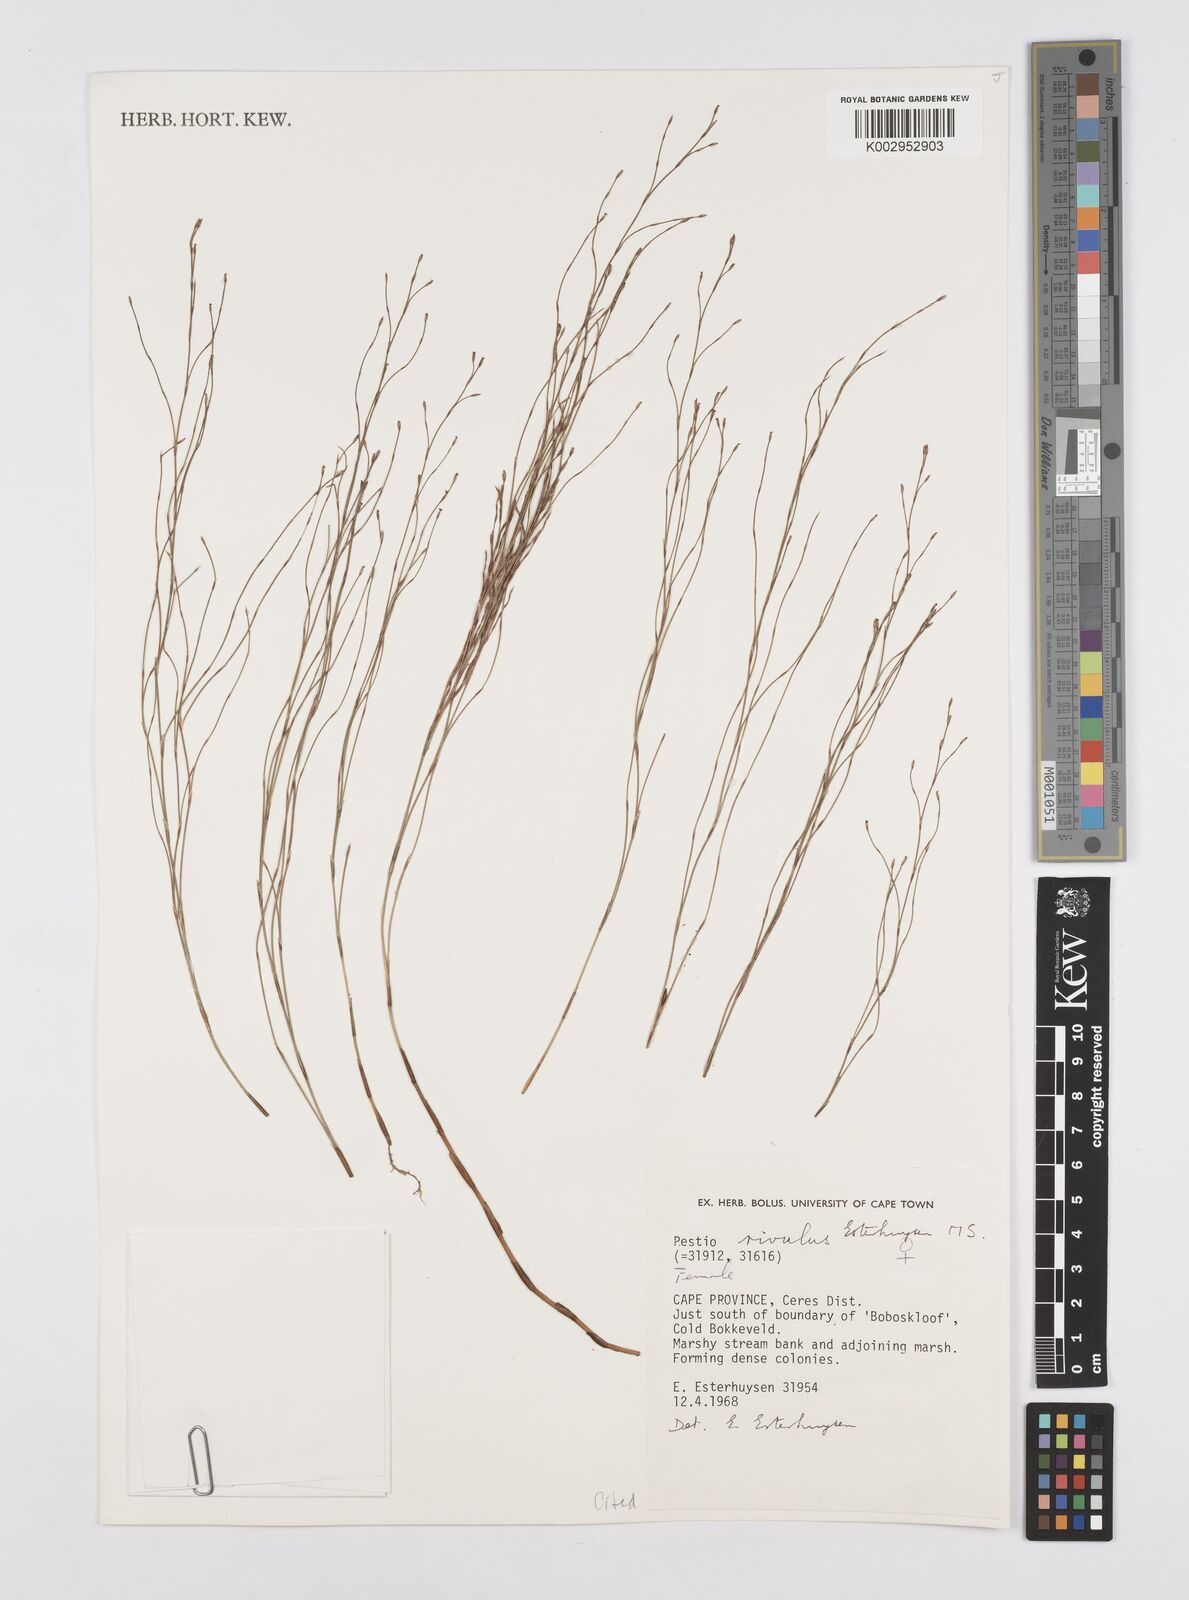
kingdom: Plantae
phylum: Tracheophyta
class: Liliopsida
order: Poales
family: Restionaceae
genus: Restio
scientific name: Restio rivulus
